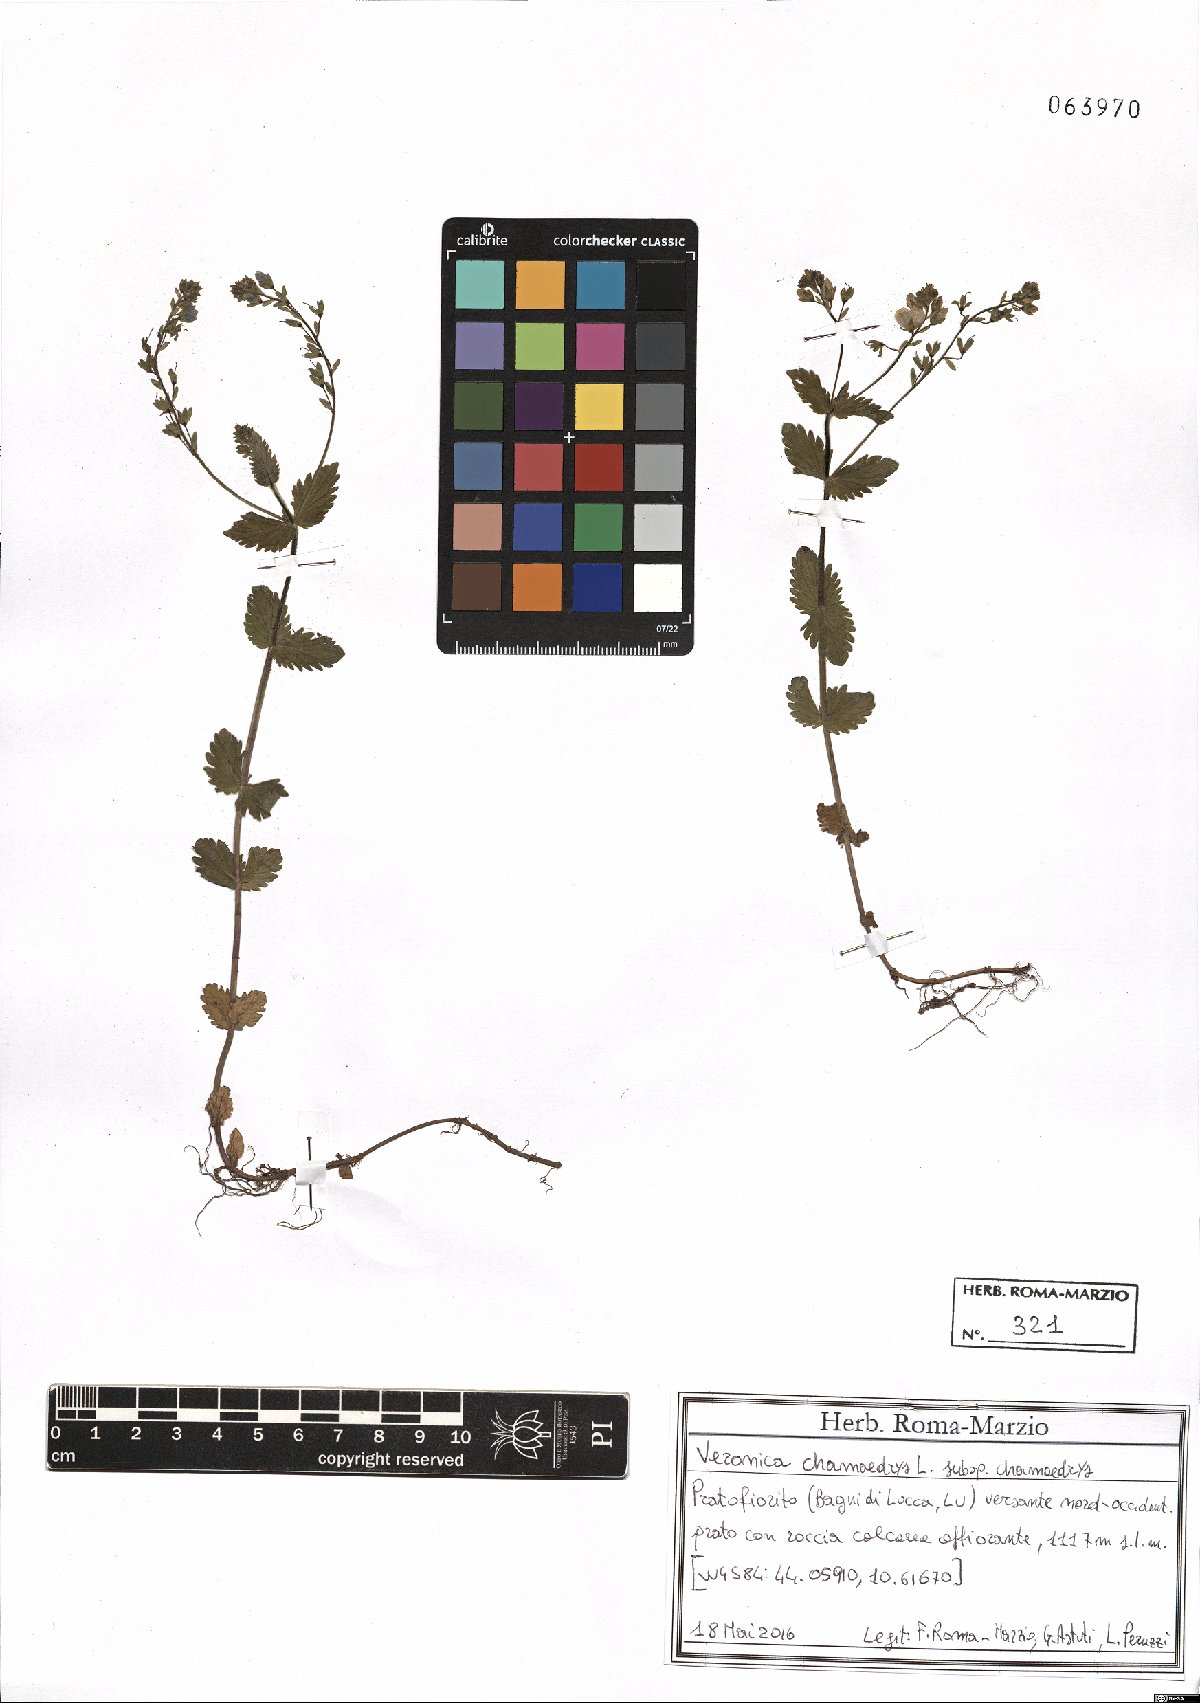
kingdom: Plantae
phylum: Tracheophyta
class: Magnoliopsida
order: Lamiales
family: Plantaginaceae
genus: Veronica
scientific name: Veronica chamaedrys
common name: Germander speedwell
